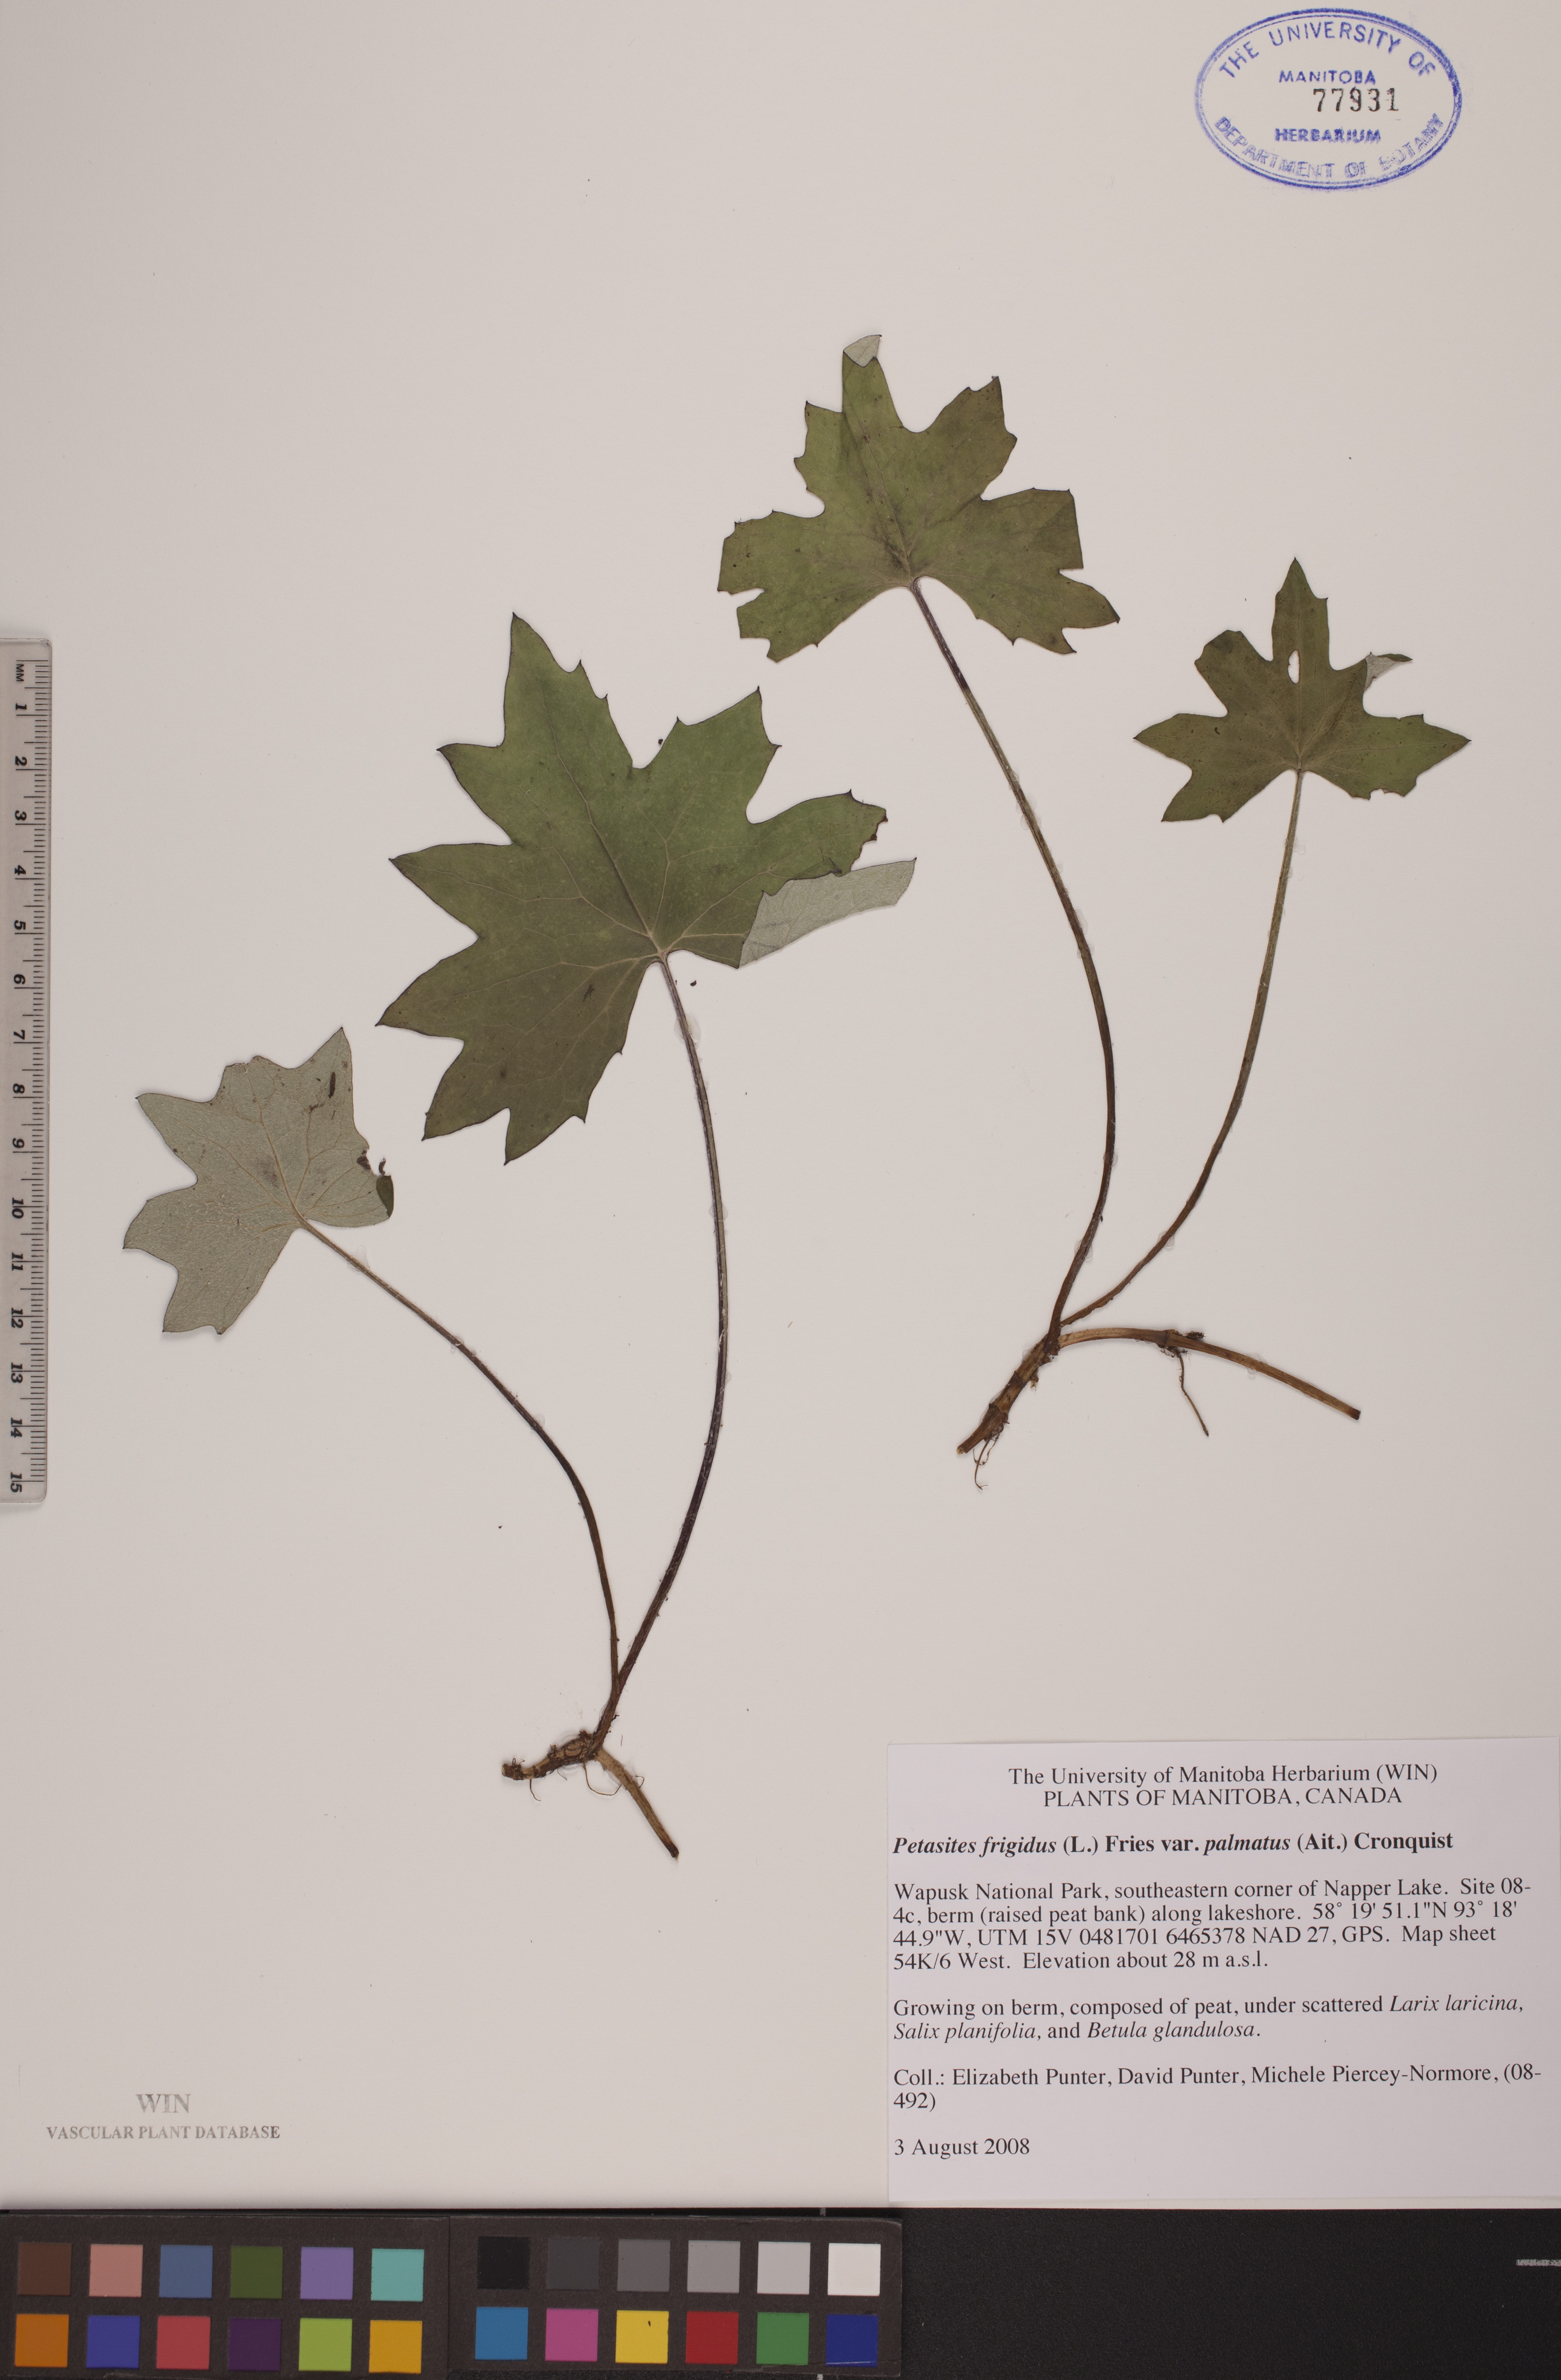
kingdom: Plantae
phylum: Tracheophyta
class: Magnoliopsida
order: Asterales
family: Asteraceae
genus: Petasites
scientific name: Petasites frigidus
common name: Arctic butterbur
